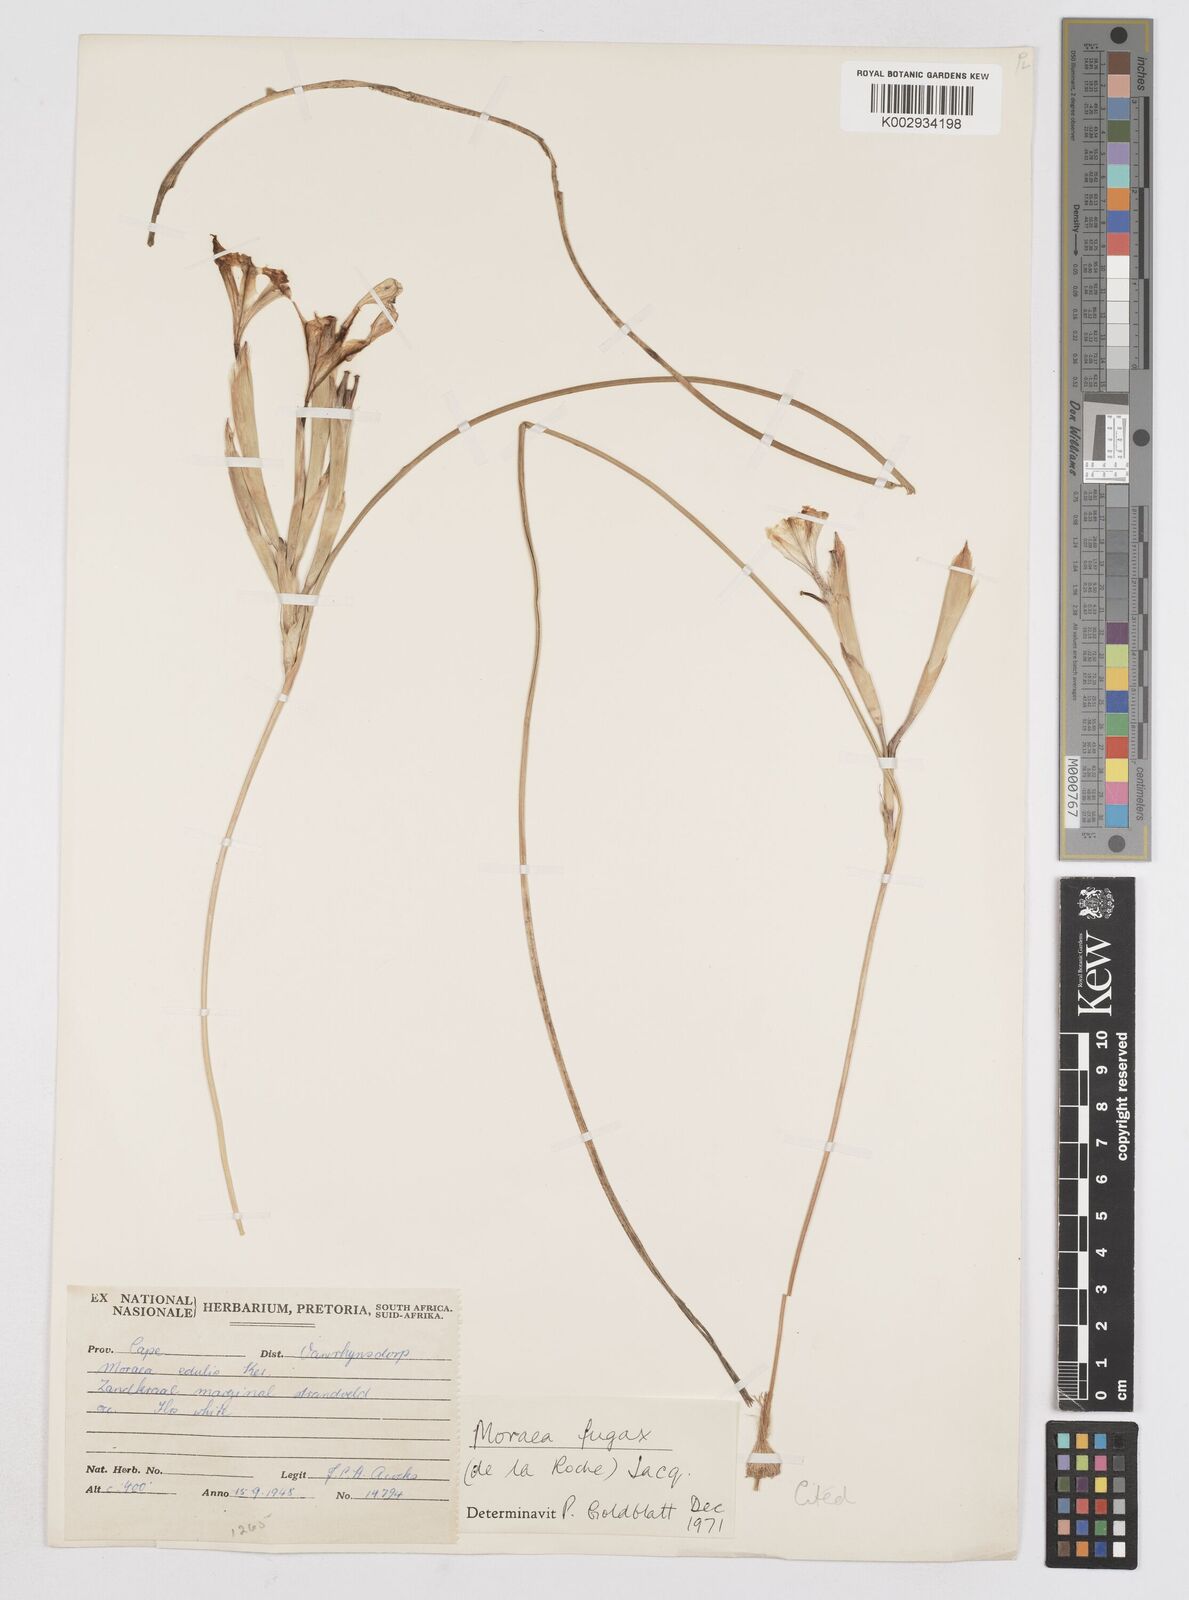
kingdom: Plantae
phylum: Tracheophyta
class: Liliopsida
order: Asparagales
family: Iridaceae
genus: Moraea
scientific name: Moraea fugax
